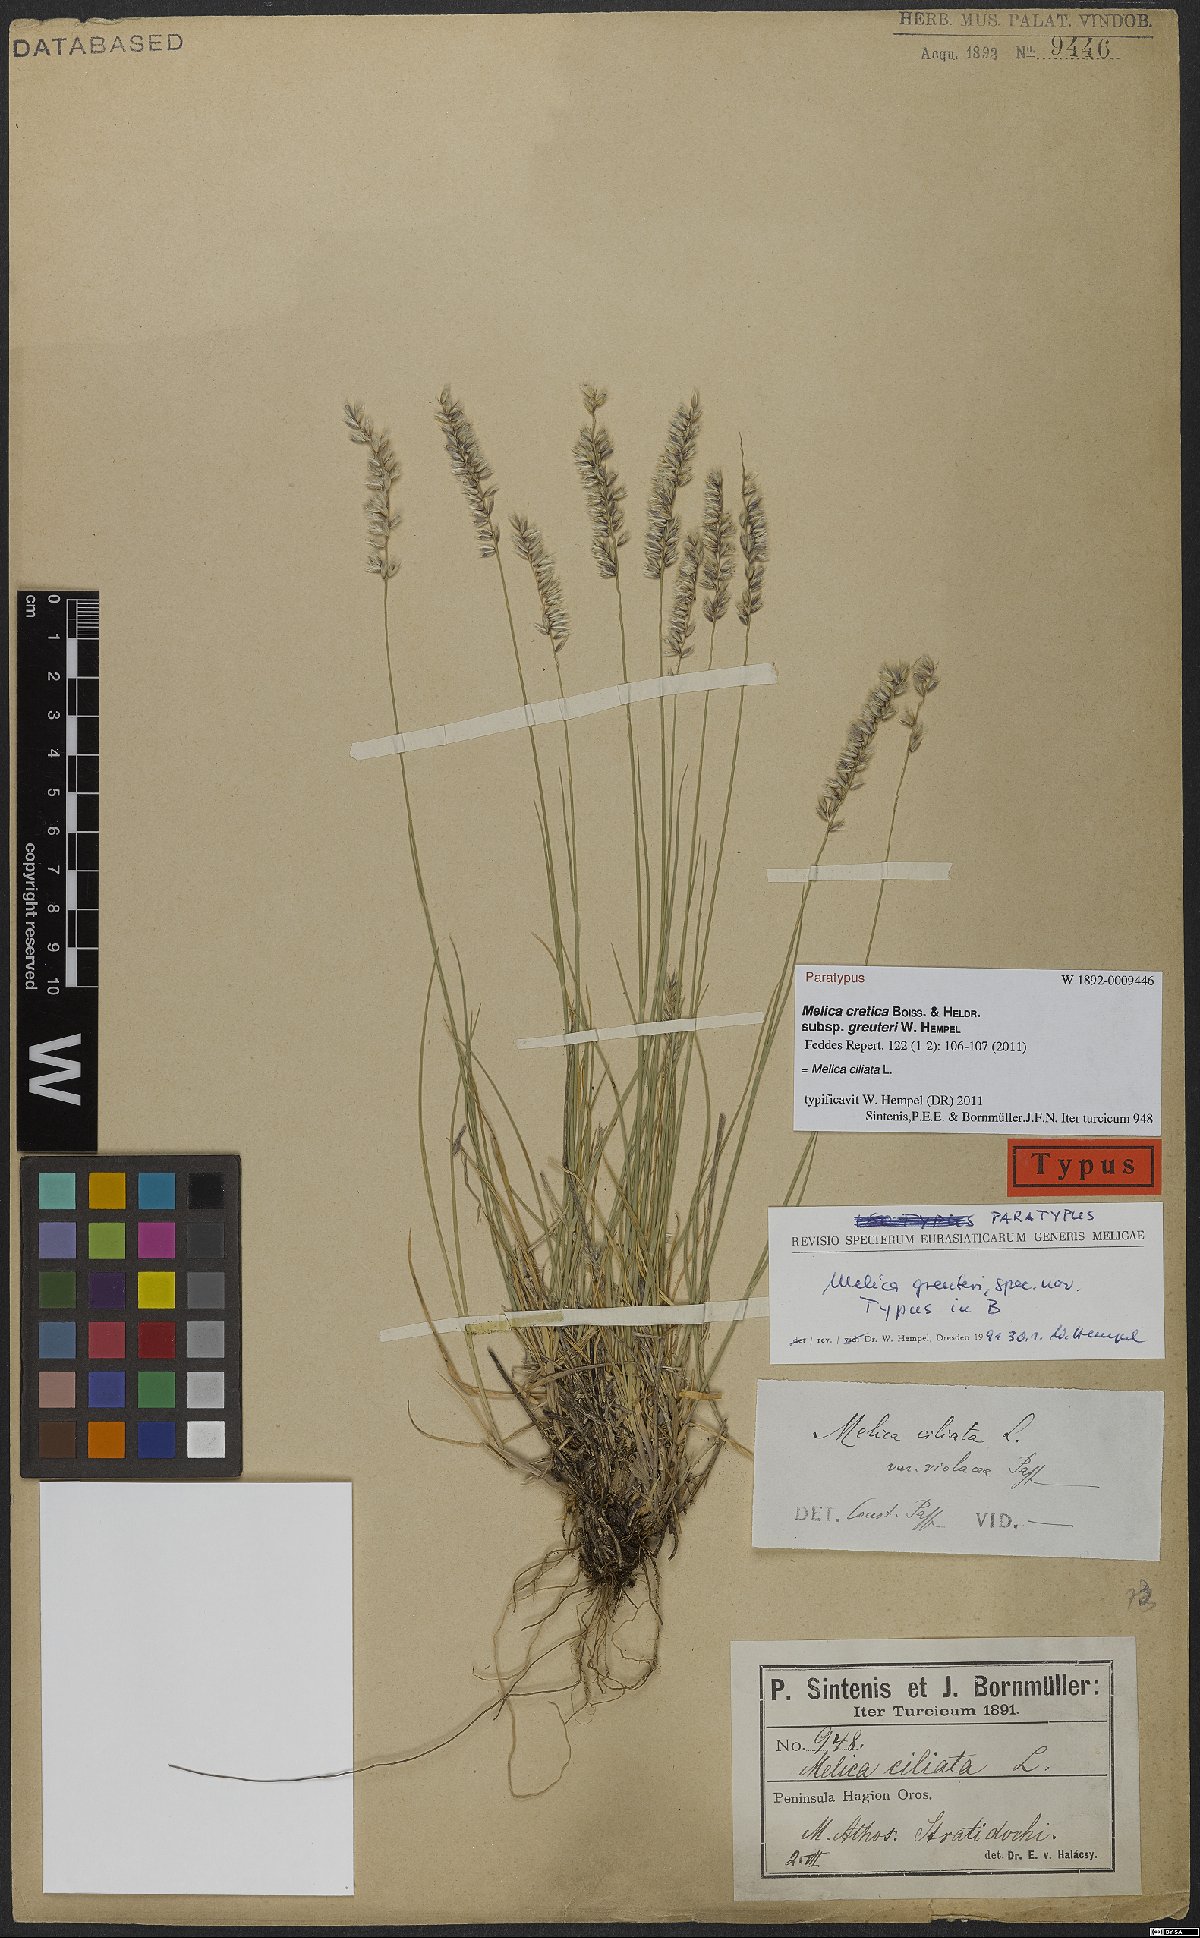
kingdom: Plantae
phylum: Tracheophyta
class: Liliopsida
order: Poales
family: Poaceae
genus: Melica
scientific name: Melica ciliata
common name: Hairy melicgrass
